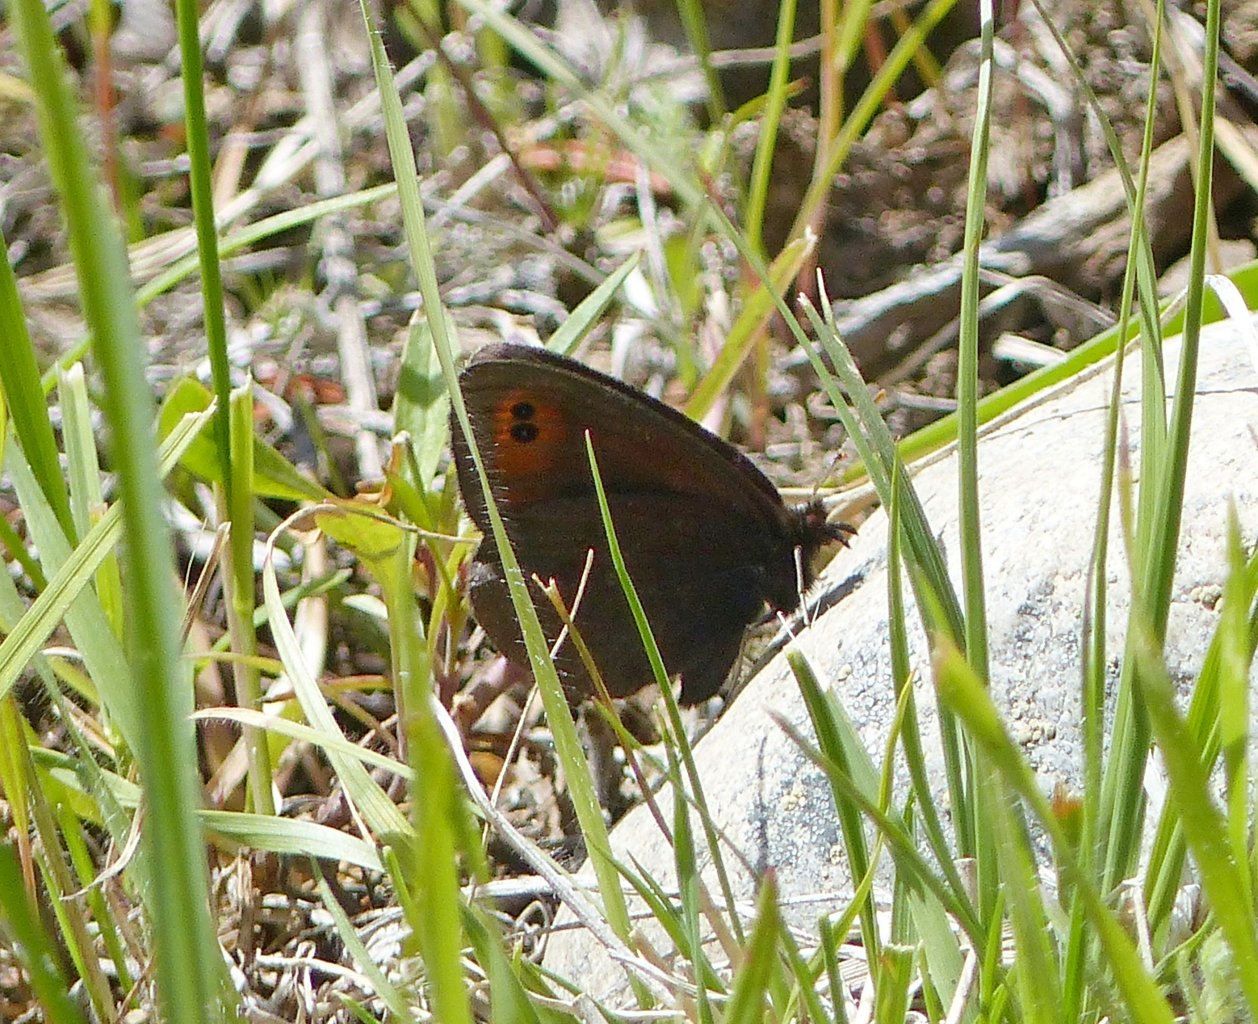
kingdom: Animalia
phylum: Arthropoda
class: Insecta
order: Lepidoptera
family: Nymphalidae
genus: Erebia
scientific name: Erebia epipsodea
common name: Common Alpine
